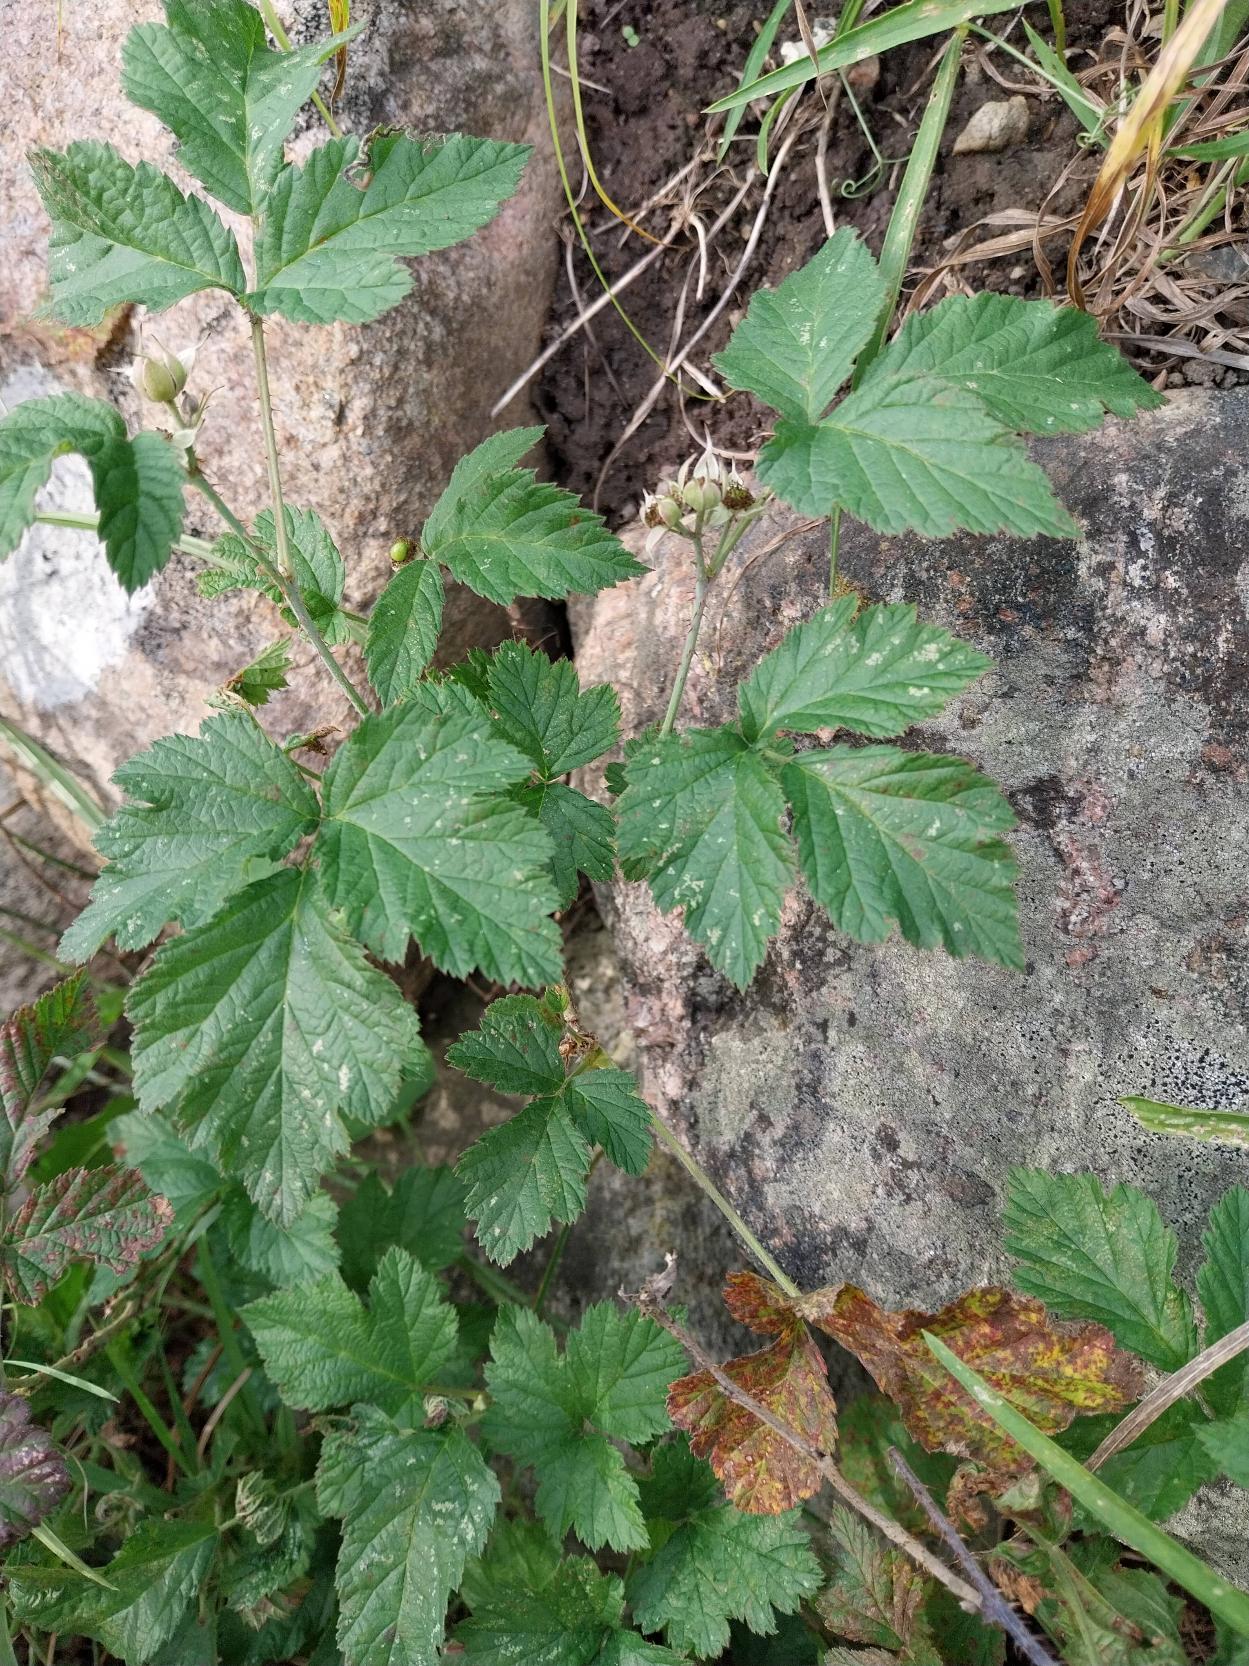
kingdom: Plantae
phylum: Tracheophyta
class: Magnoliopsida
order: Rosales
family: Rosaceae
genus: Rubus
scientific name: Rubus caesius
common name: Korbær
